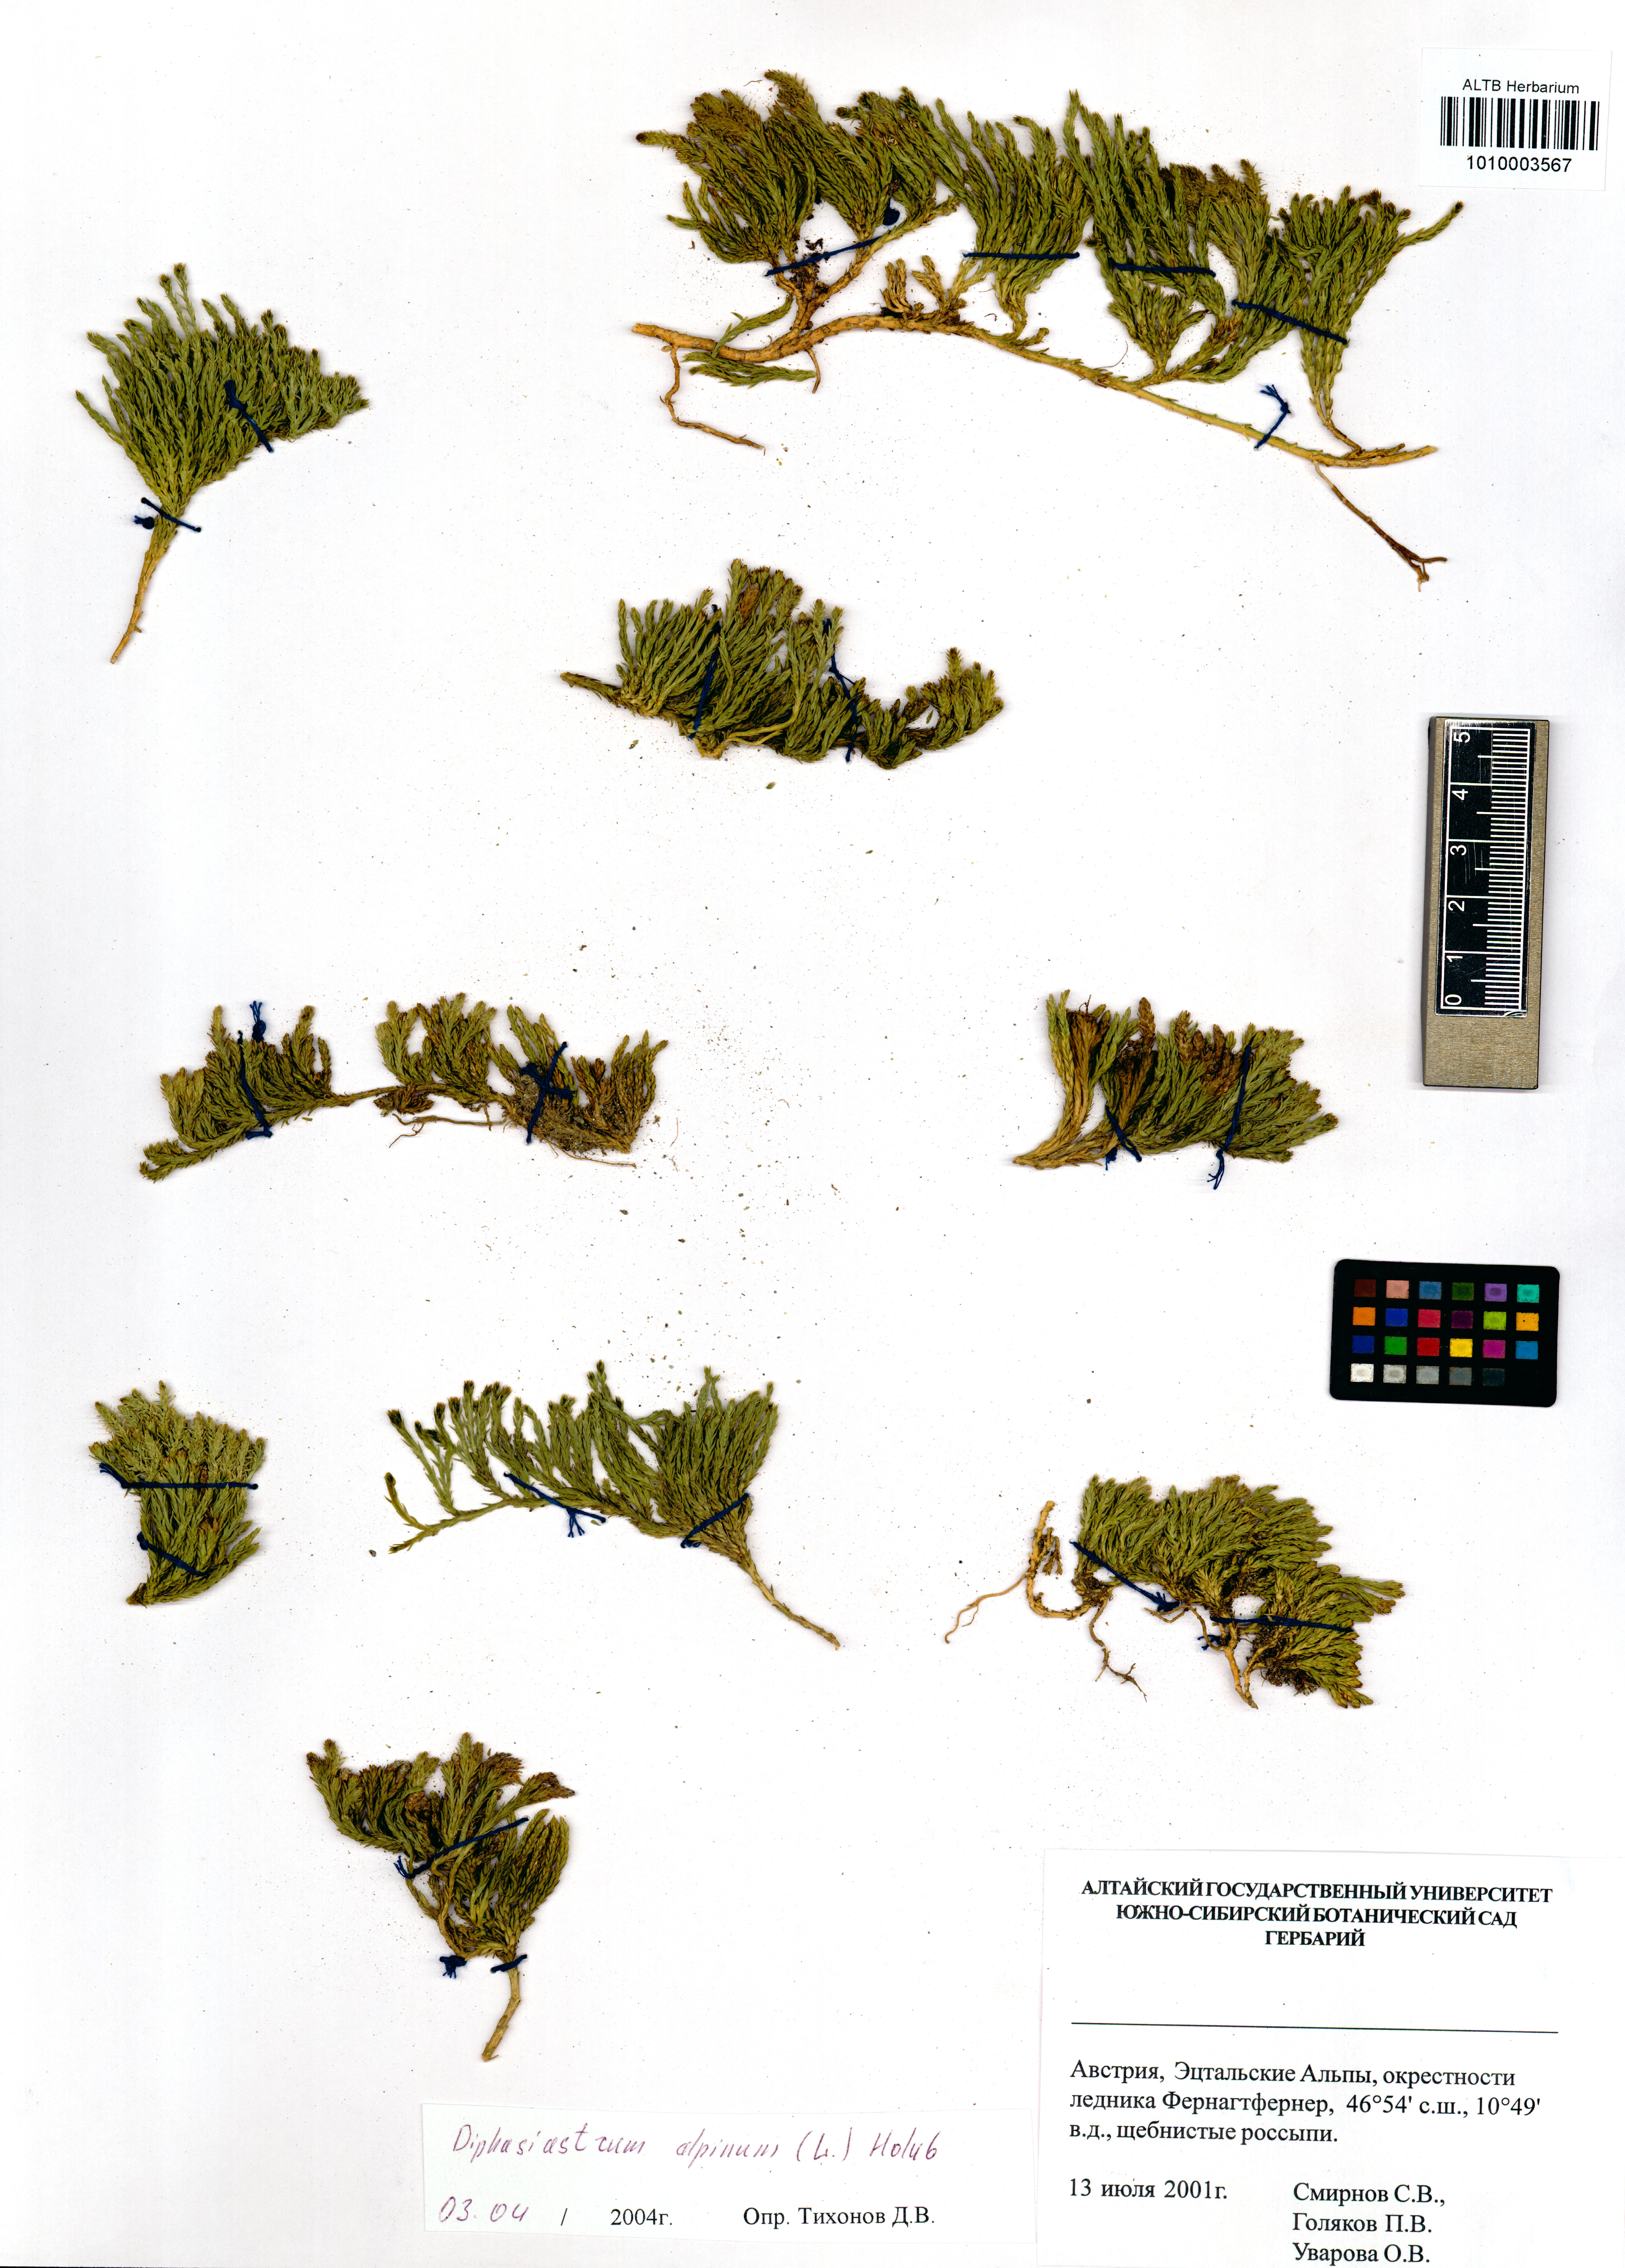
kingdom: Plantae
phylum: Tracheophyta
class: Lycopodiopsida
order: Lycopodiales
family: Lycopodiaceae
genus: Diphasiastrum
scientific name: Diphasiastrum alpinum
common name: Alpine clubmoss
